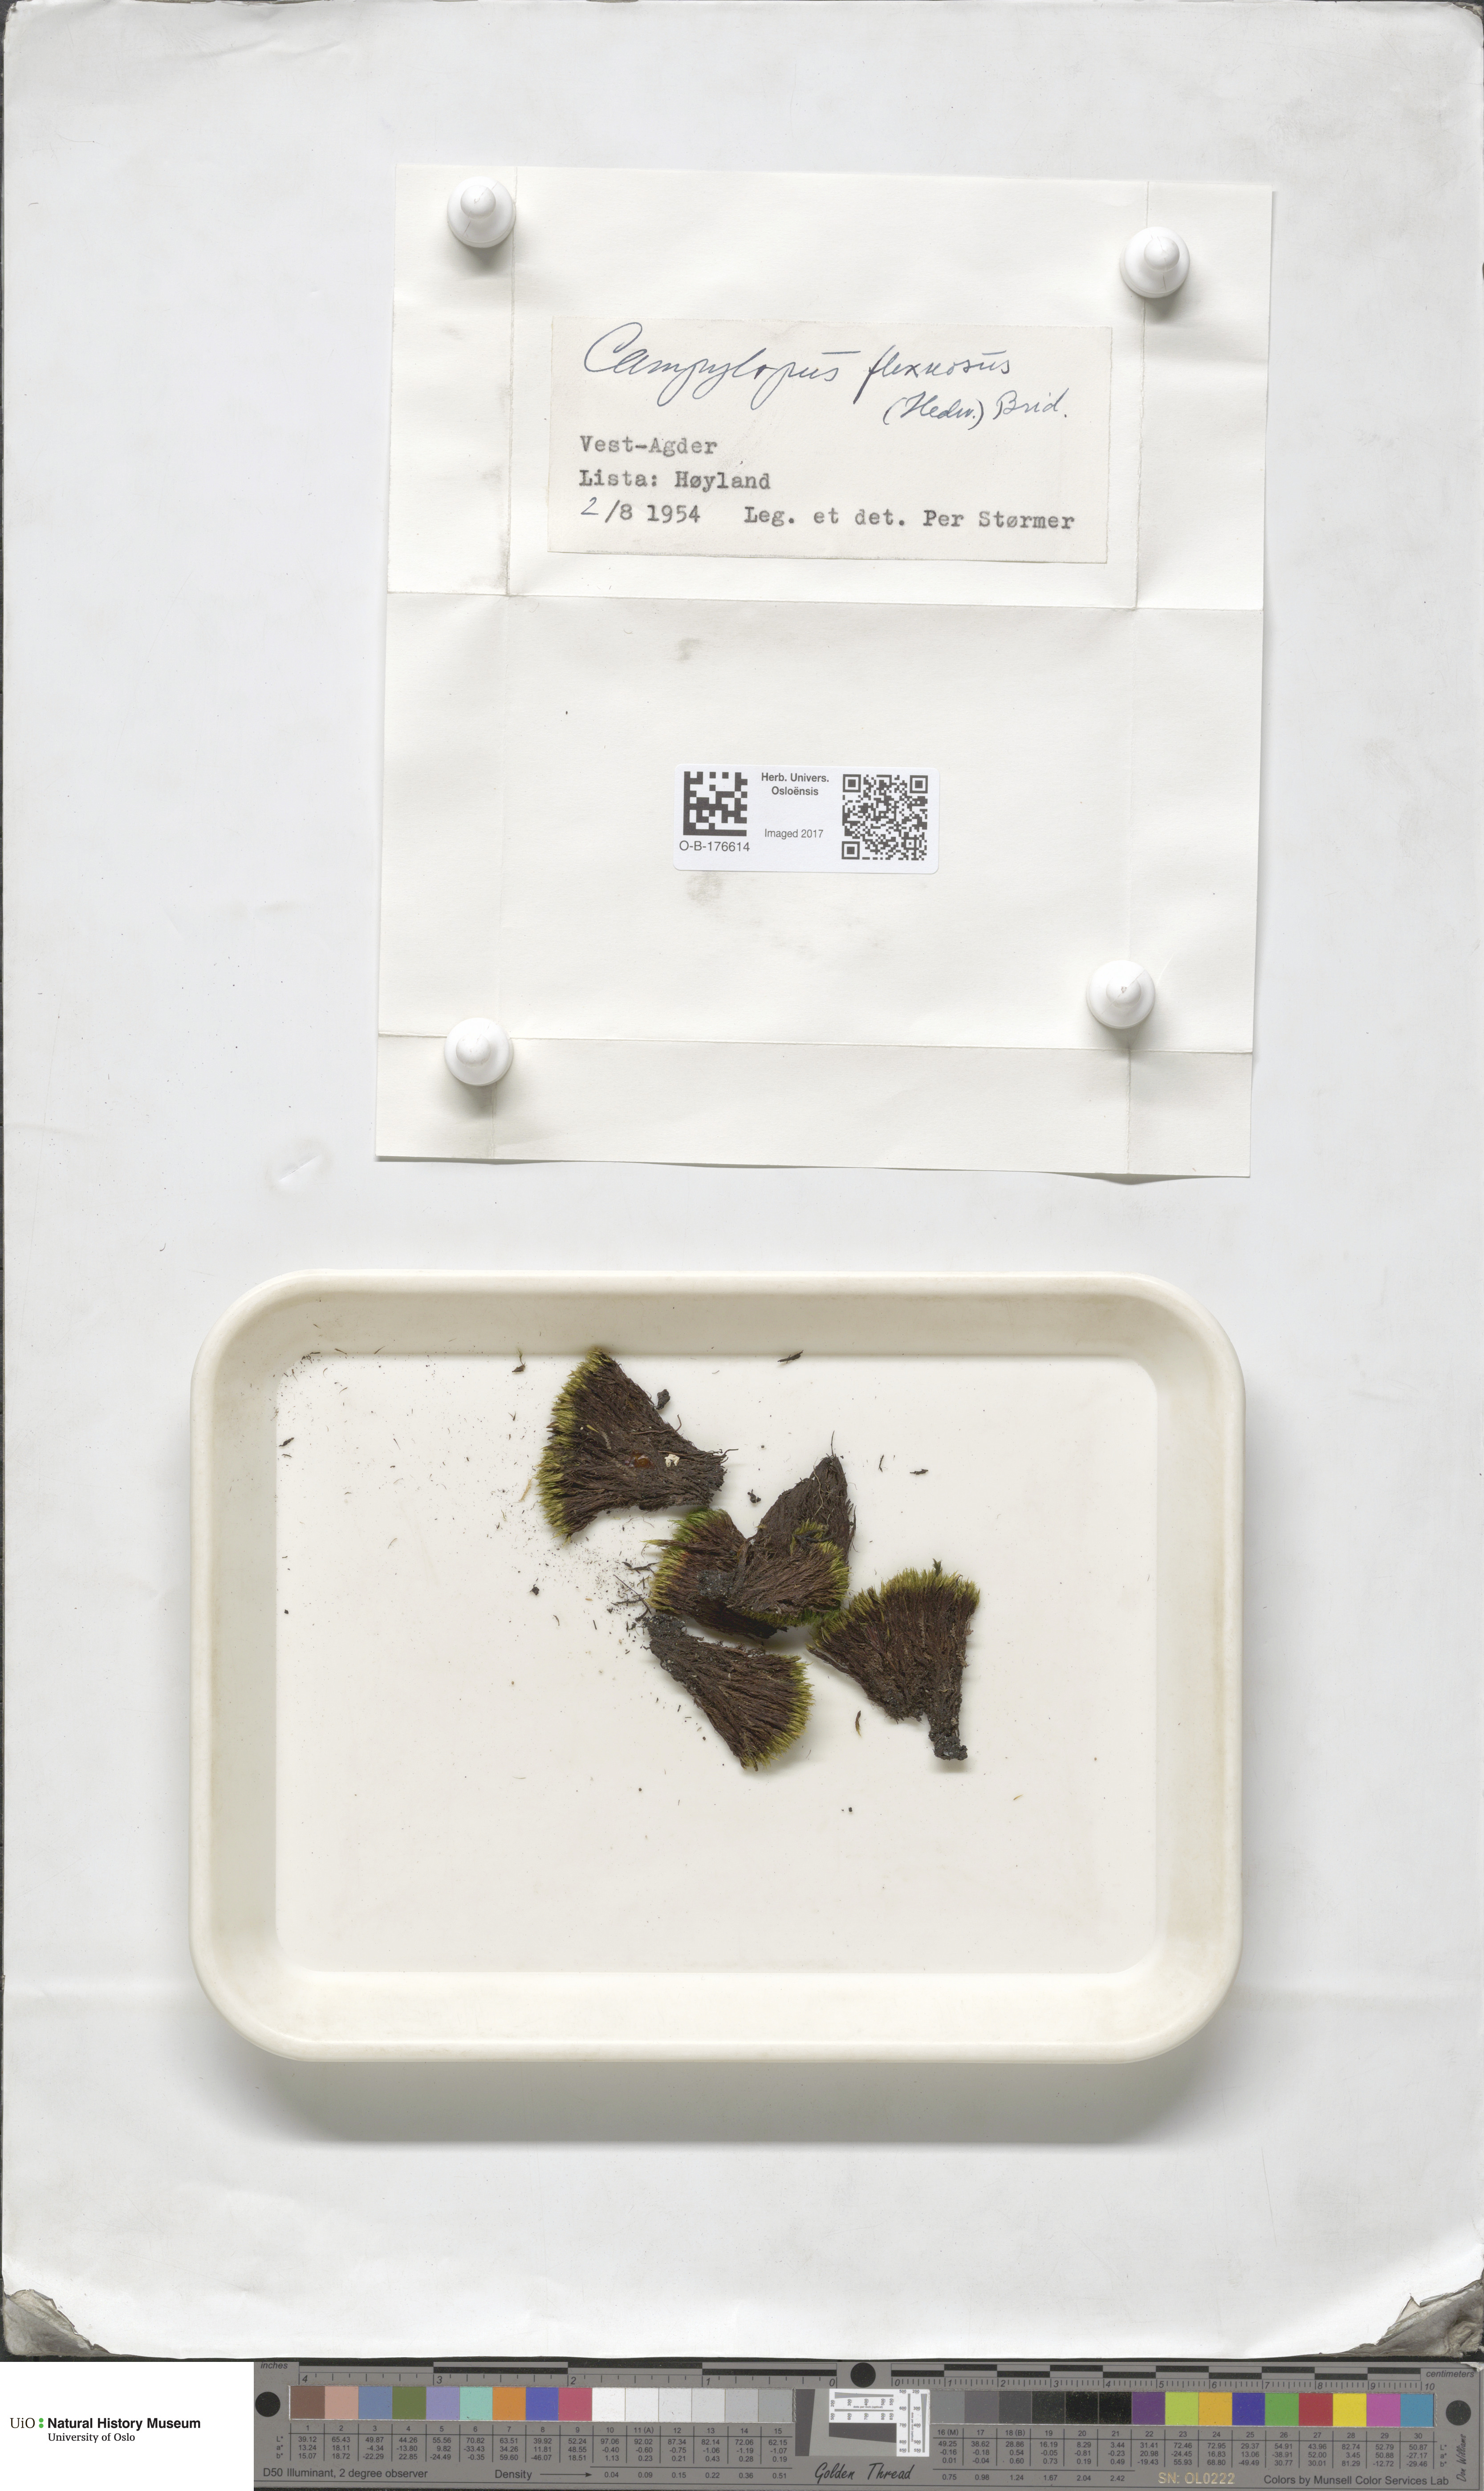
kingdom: Plantae
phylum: Bryophyta
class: Bryopsida
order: Dicranales
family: Leucobryaceae
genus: Campylopus
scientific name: Campylopus flexuosus
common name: Rusty swan-neck moss
